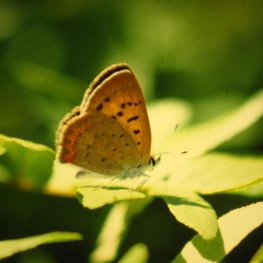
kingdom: Animalia
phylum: Arthropoda
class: Insecta
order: Lepidoptera
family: Lycaenidae
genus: Epidemia
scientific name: Epidemia dorcas
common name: Dorcas Copper
